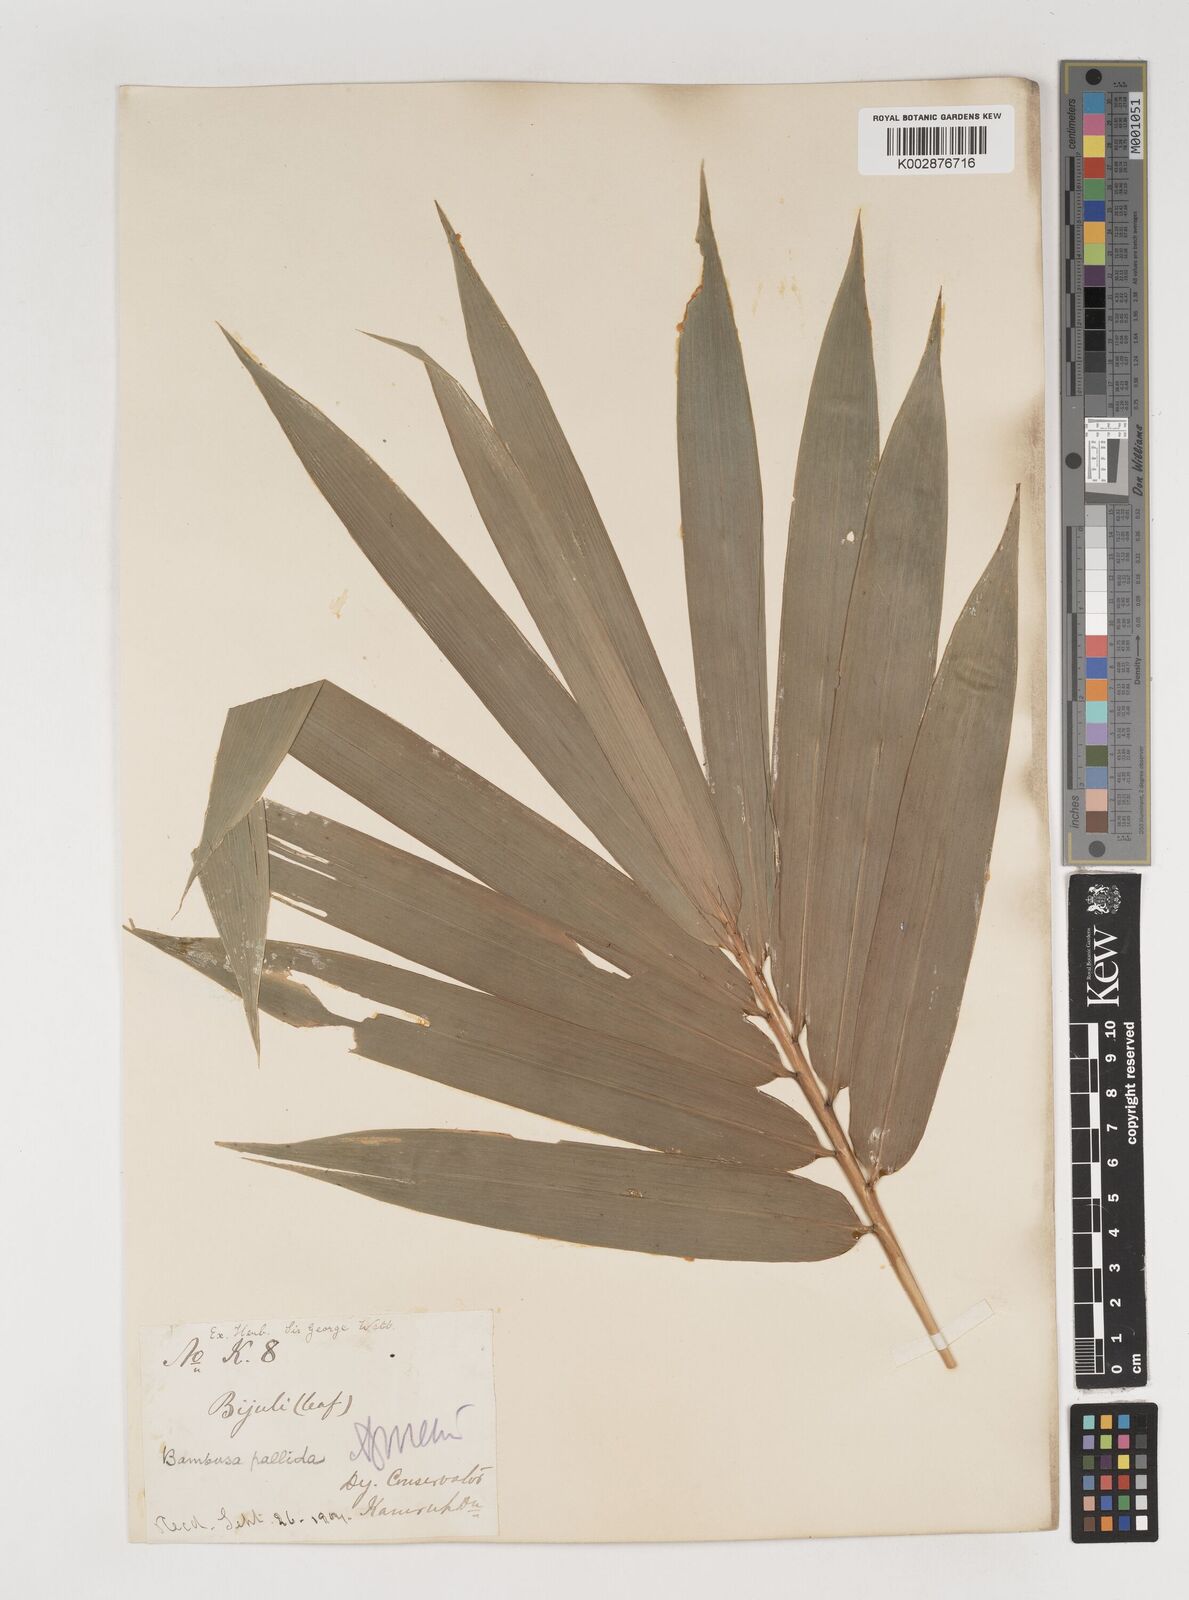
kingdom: Plantae
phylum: Tracheophyta
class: Liliopsida
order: Poales
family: Poaceae
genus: Bambusa
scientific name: Bambusa pallida
